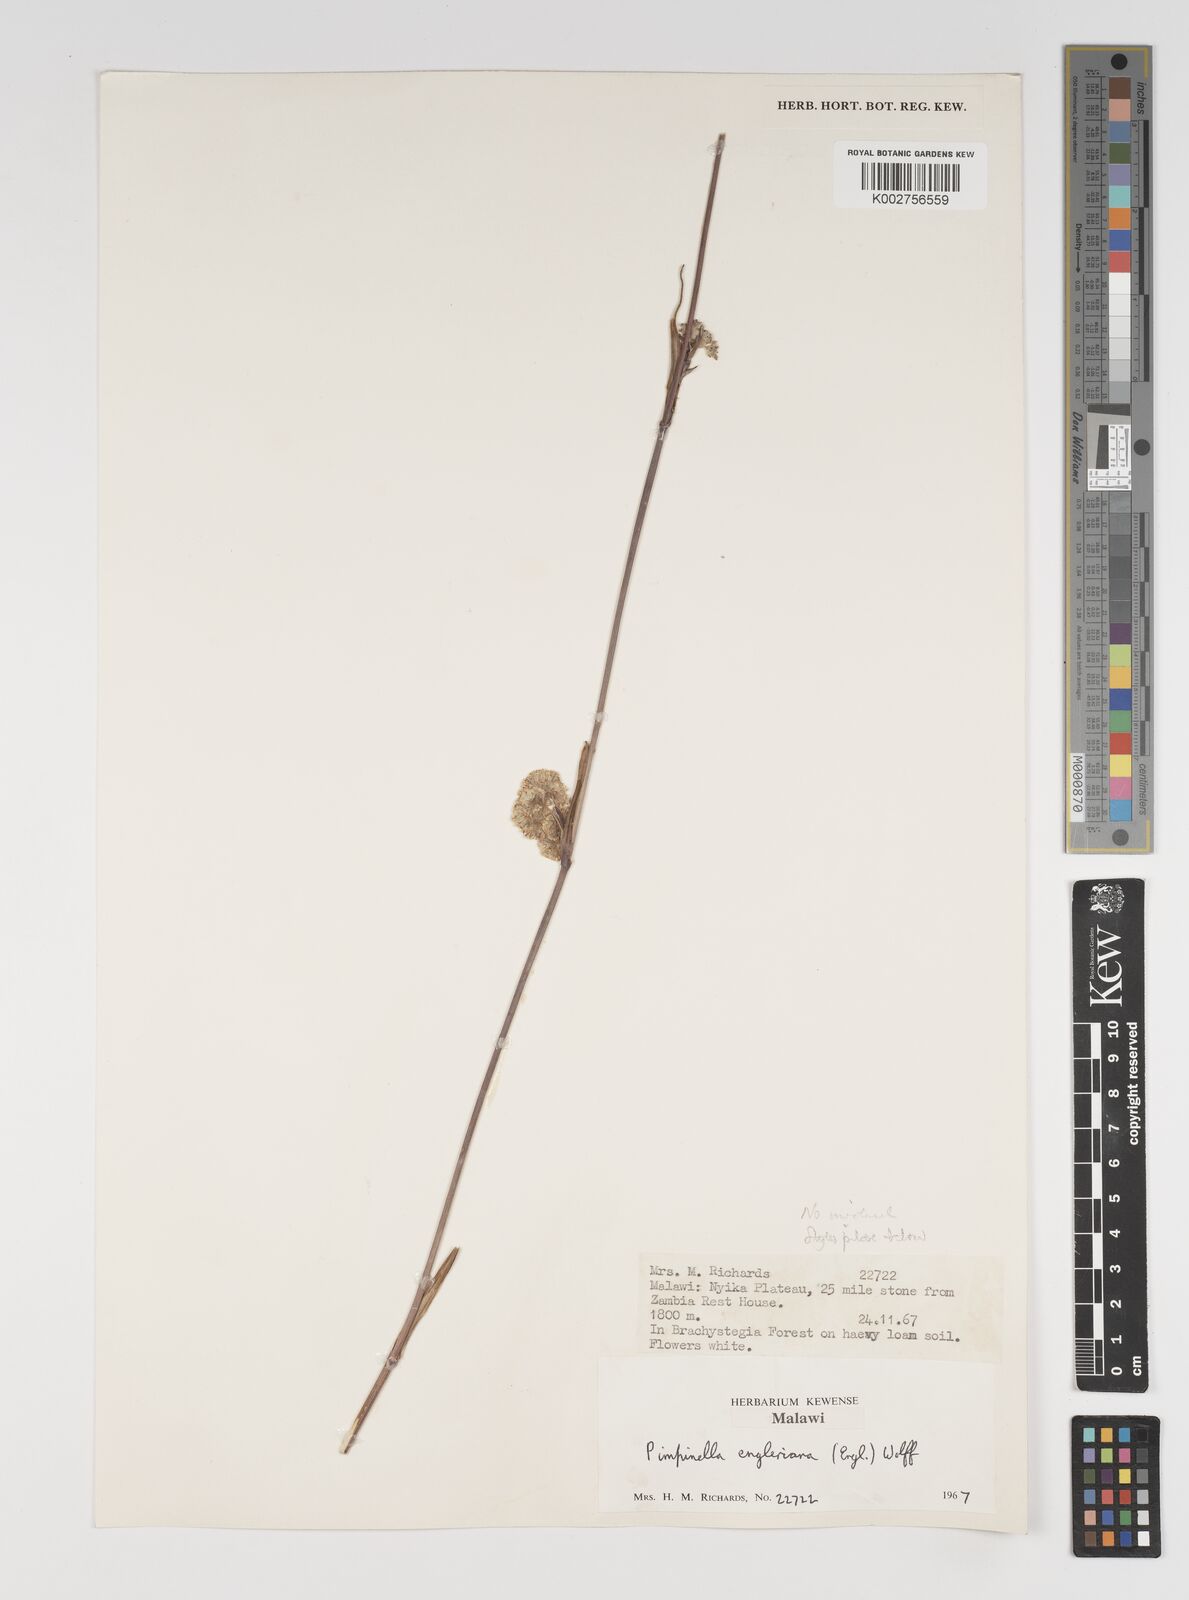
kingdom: Plantae
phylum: Tracheophyta
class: Magnoliopsida
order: Apiales
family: Apiaceae
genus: Pimpinella
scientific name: Pimpinella kingdon-wardii
